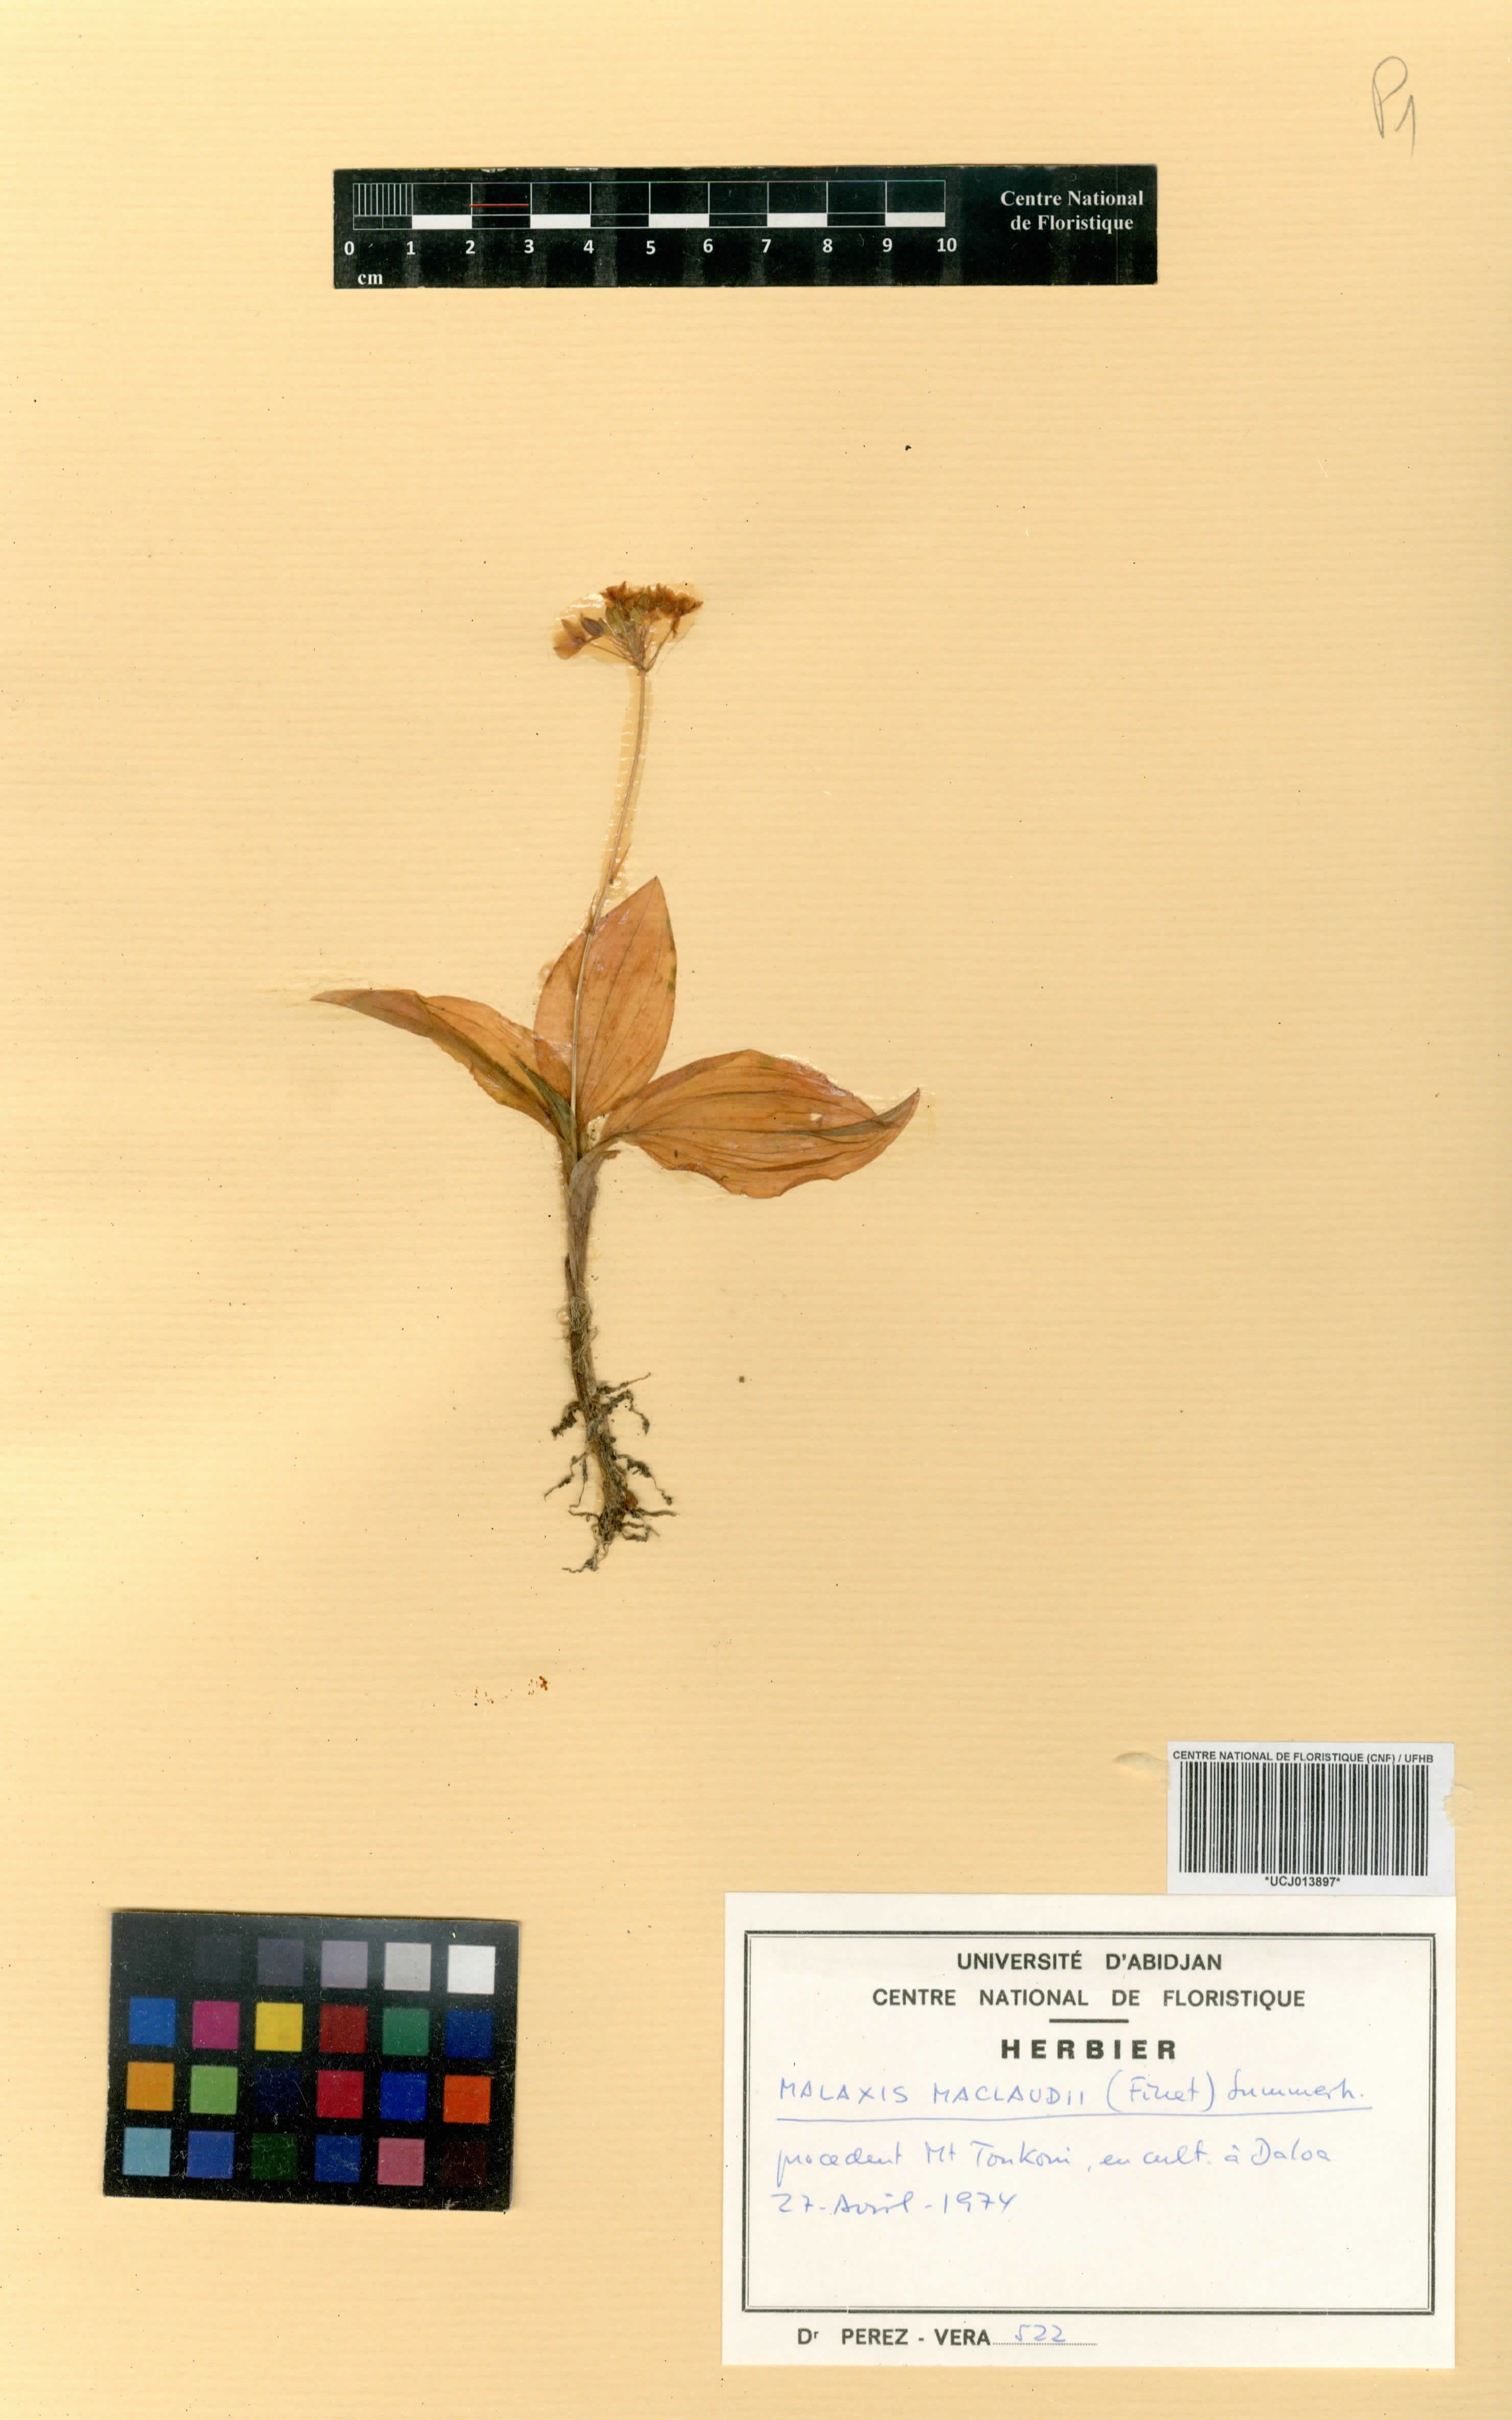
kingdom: Plantae
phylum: Tracheophyta
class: Liliopsida
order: Asparagales
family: Orchidaceae
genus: Malaxis
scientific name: Malaxis maclaudii
